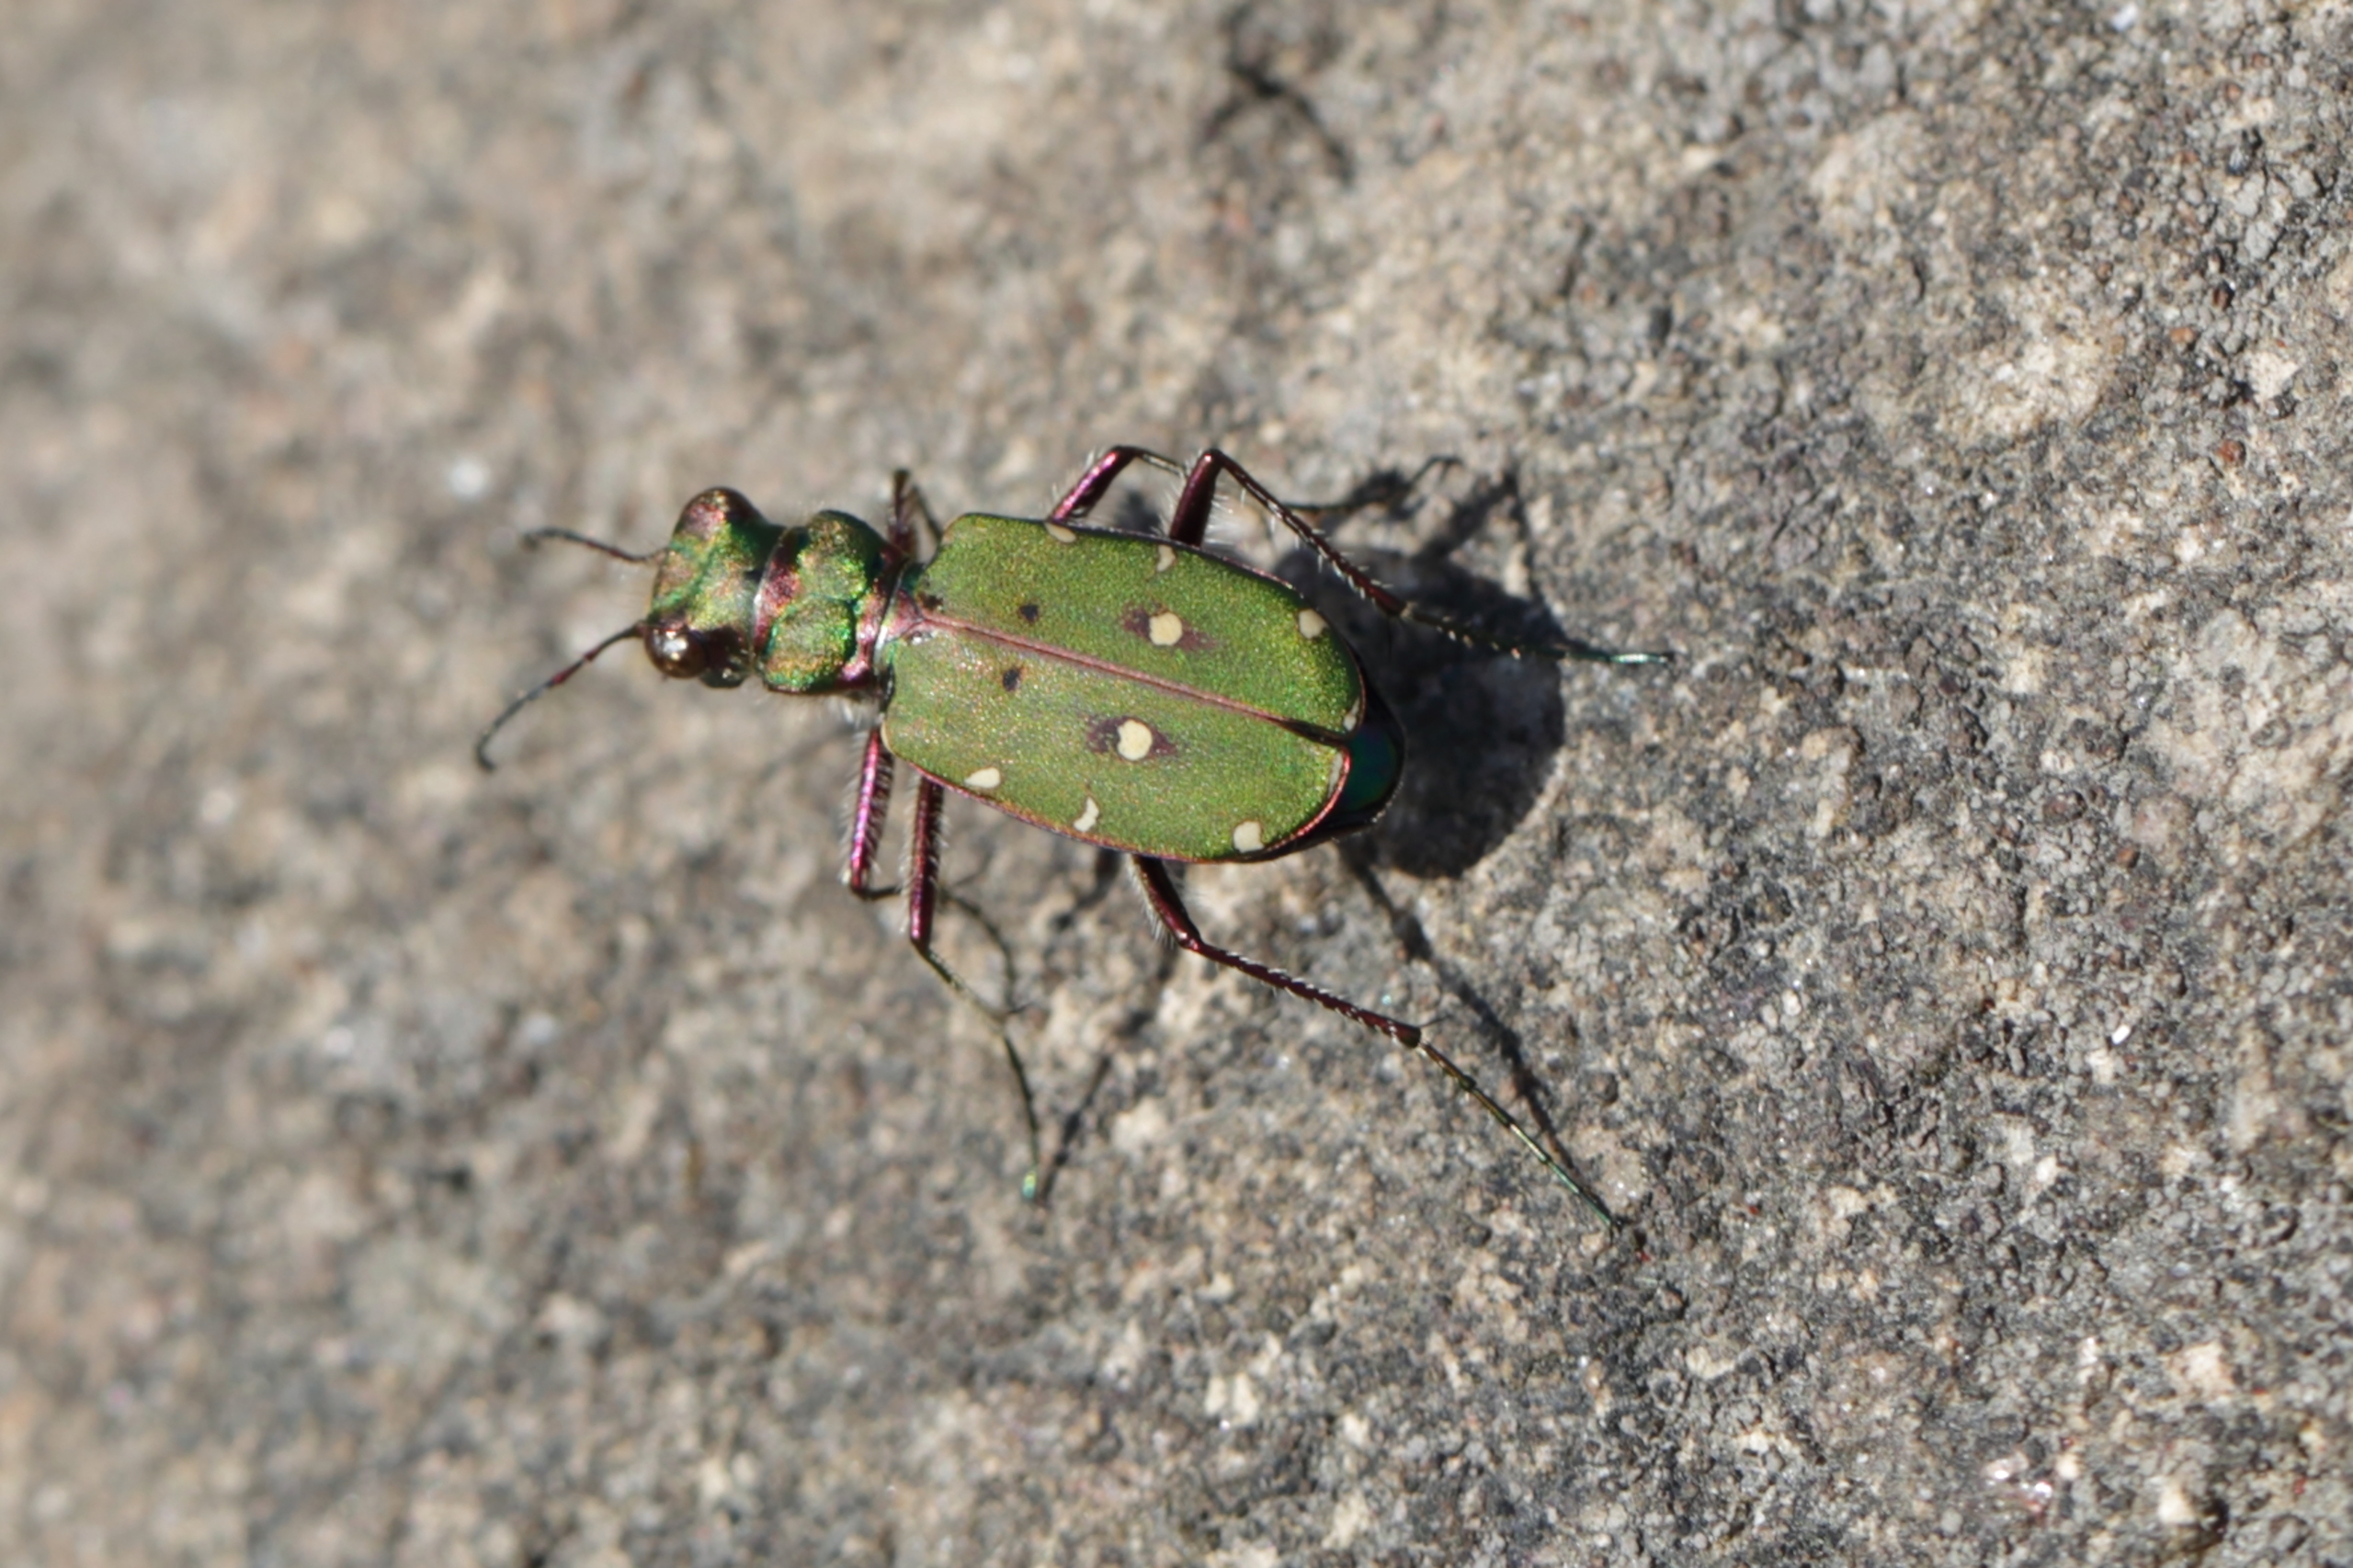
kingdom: Animalia
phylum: Arthropoda
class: Insecta
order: Coleoptera
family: Carabidae
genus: Cicindela
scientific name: Cicindela campestris
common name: Grøn sandspringer
